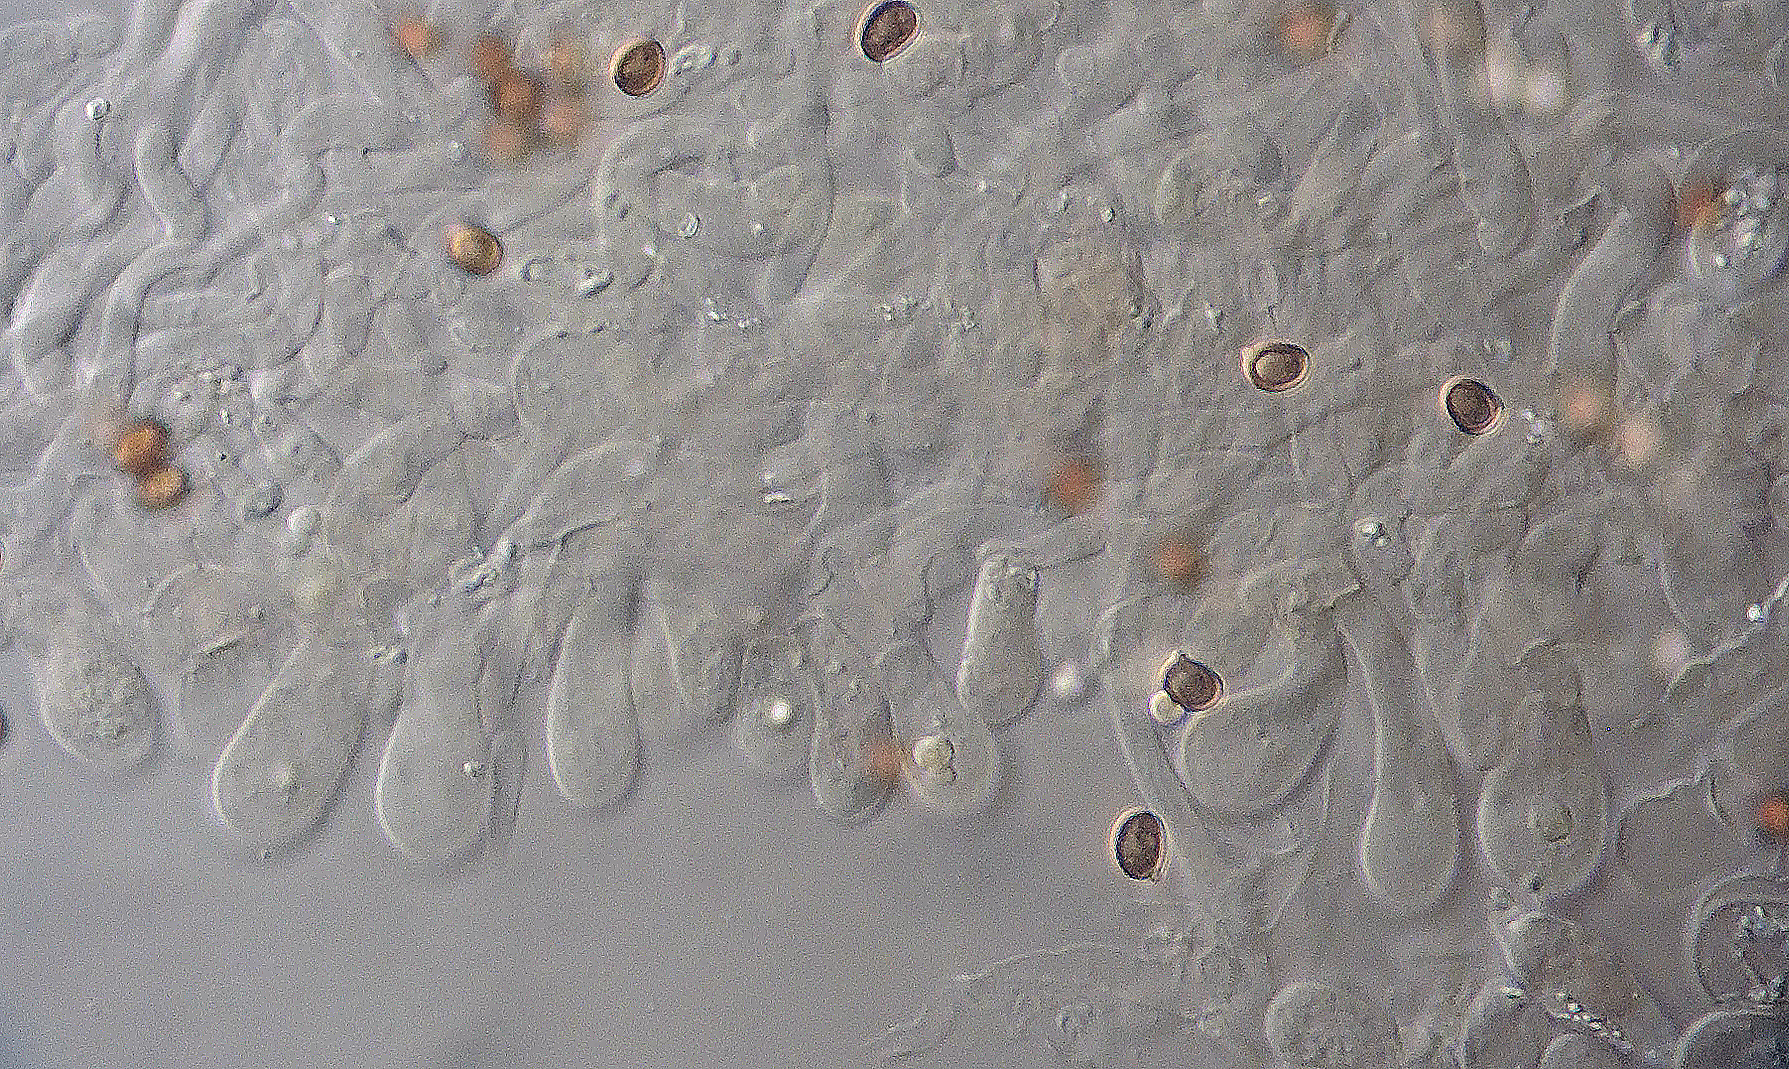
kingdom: Fungi
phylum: Basidiomycota
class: Agaricomycetes
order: Agaricales
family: Agaricaceae
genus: Agaricus
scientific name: Agaricus kerriganii
